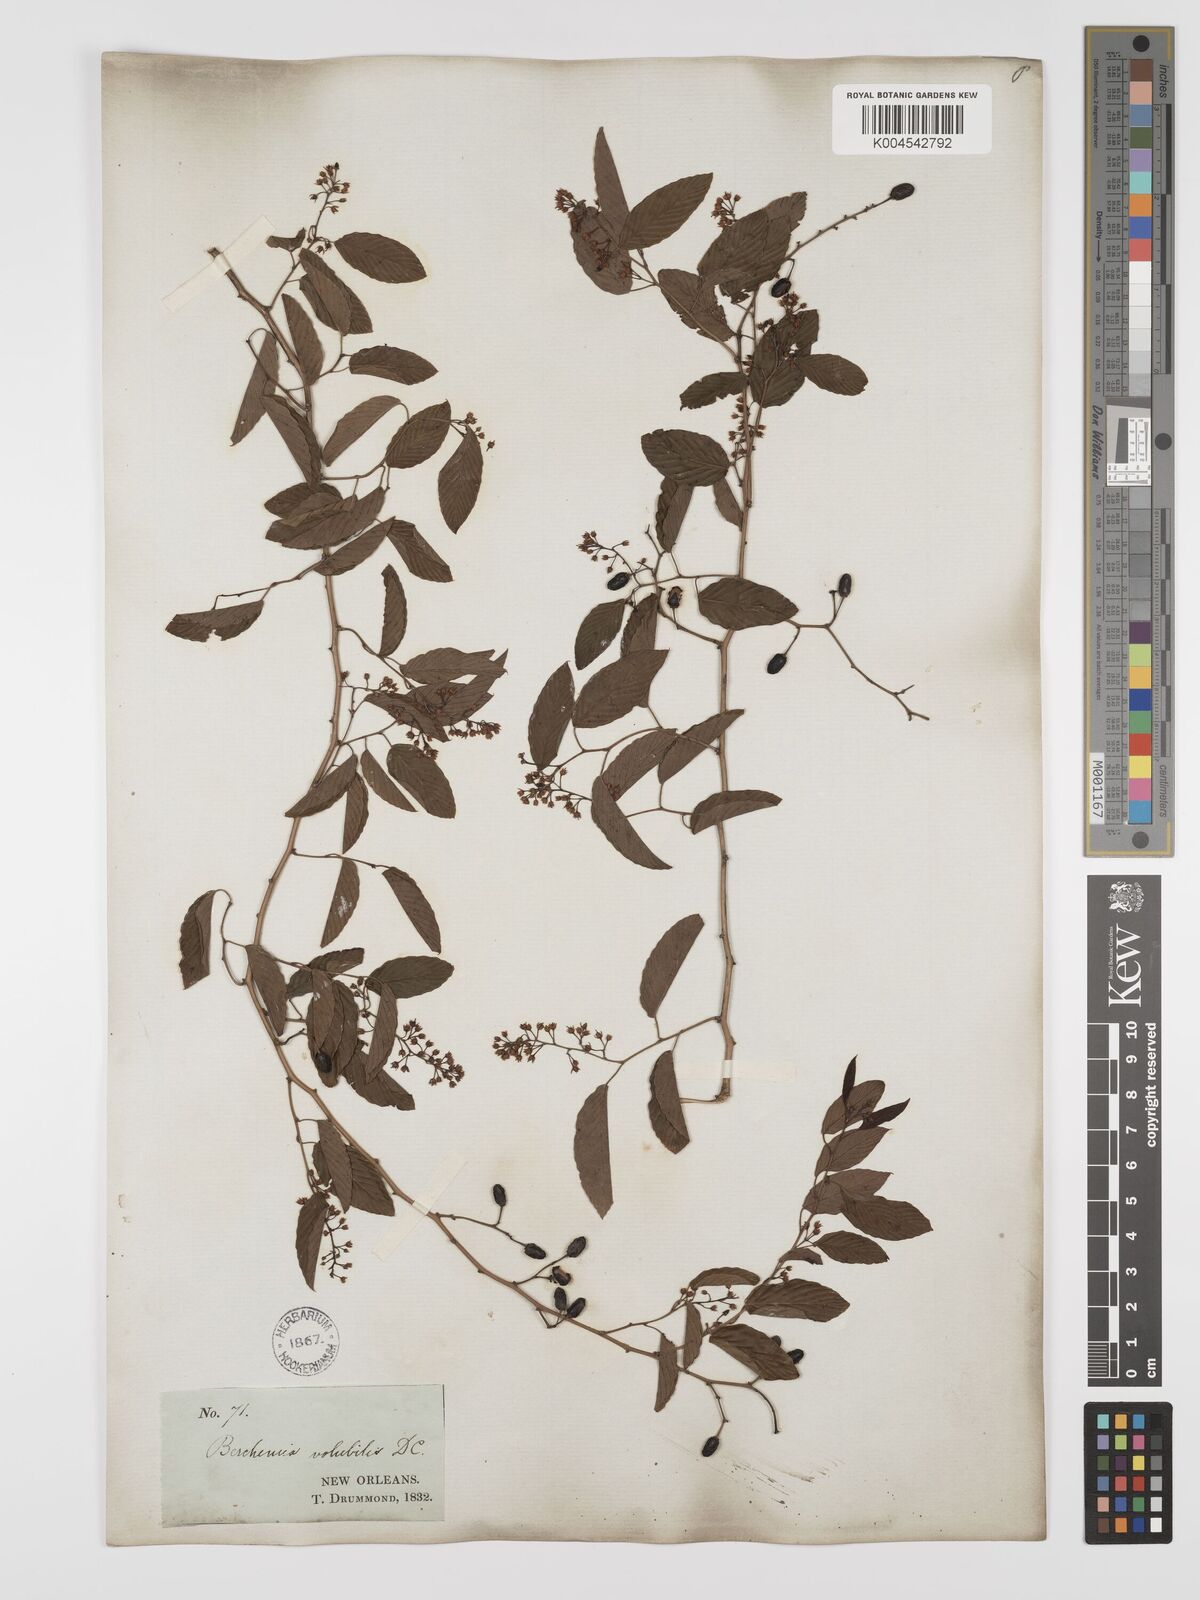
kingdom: Plantae
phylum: Tracheophyta
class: Magnoliopsida
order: Rosales
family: Rhamnaceae
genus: Berchemia
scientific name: Berchemia scandens
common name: Supplejack
